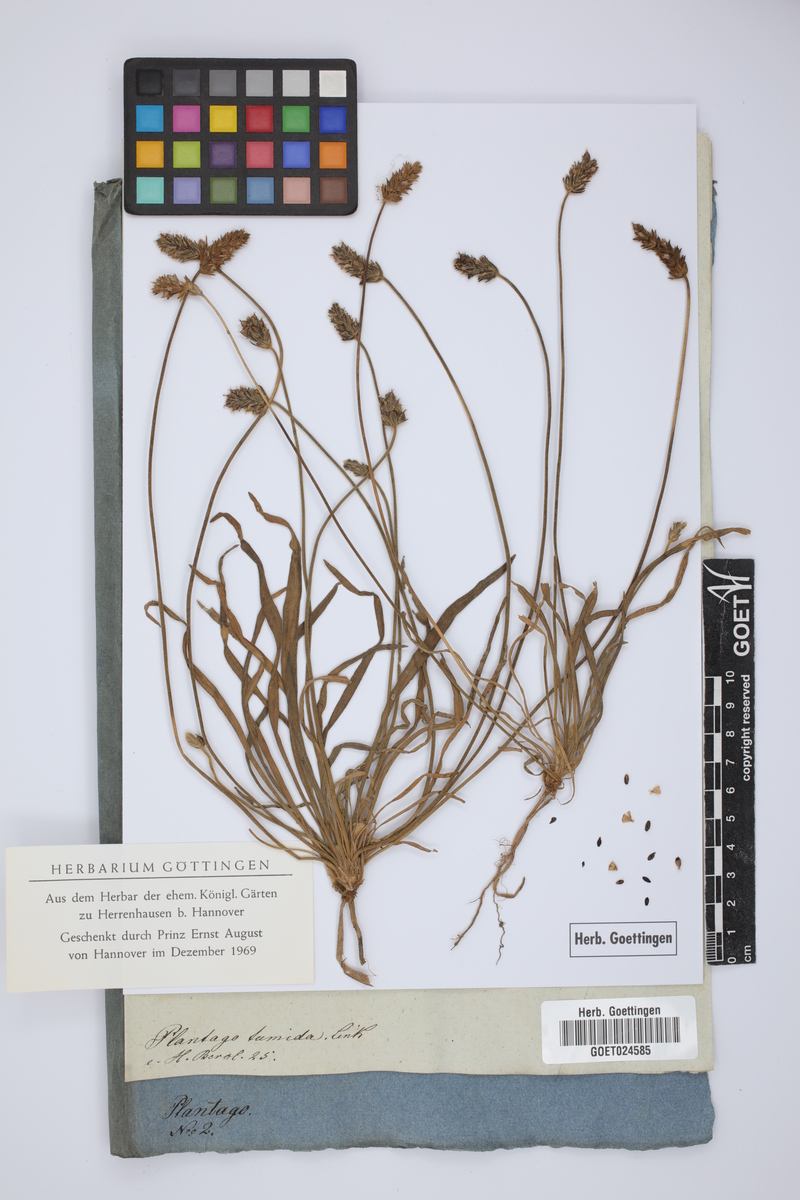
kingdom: Plantae
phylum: Tracheophyta
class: Magnoliopsida
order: Lamiales
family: Plantaginaceae
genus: Plantago
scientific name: Plantago hispidula
